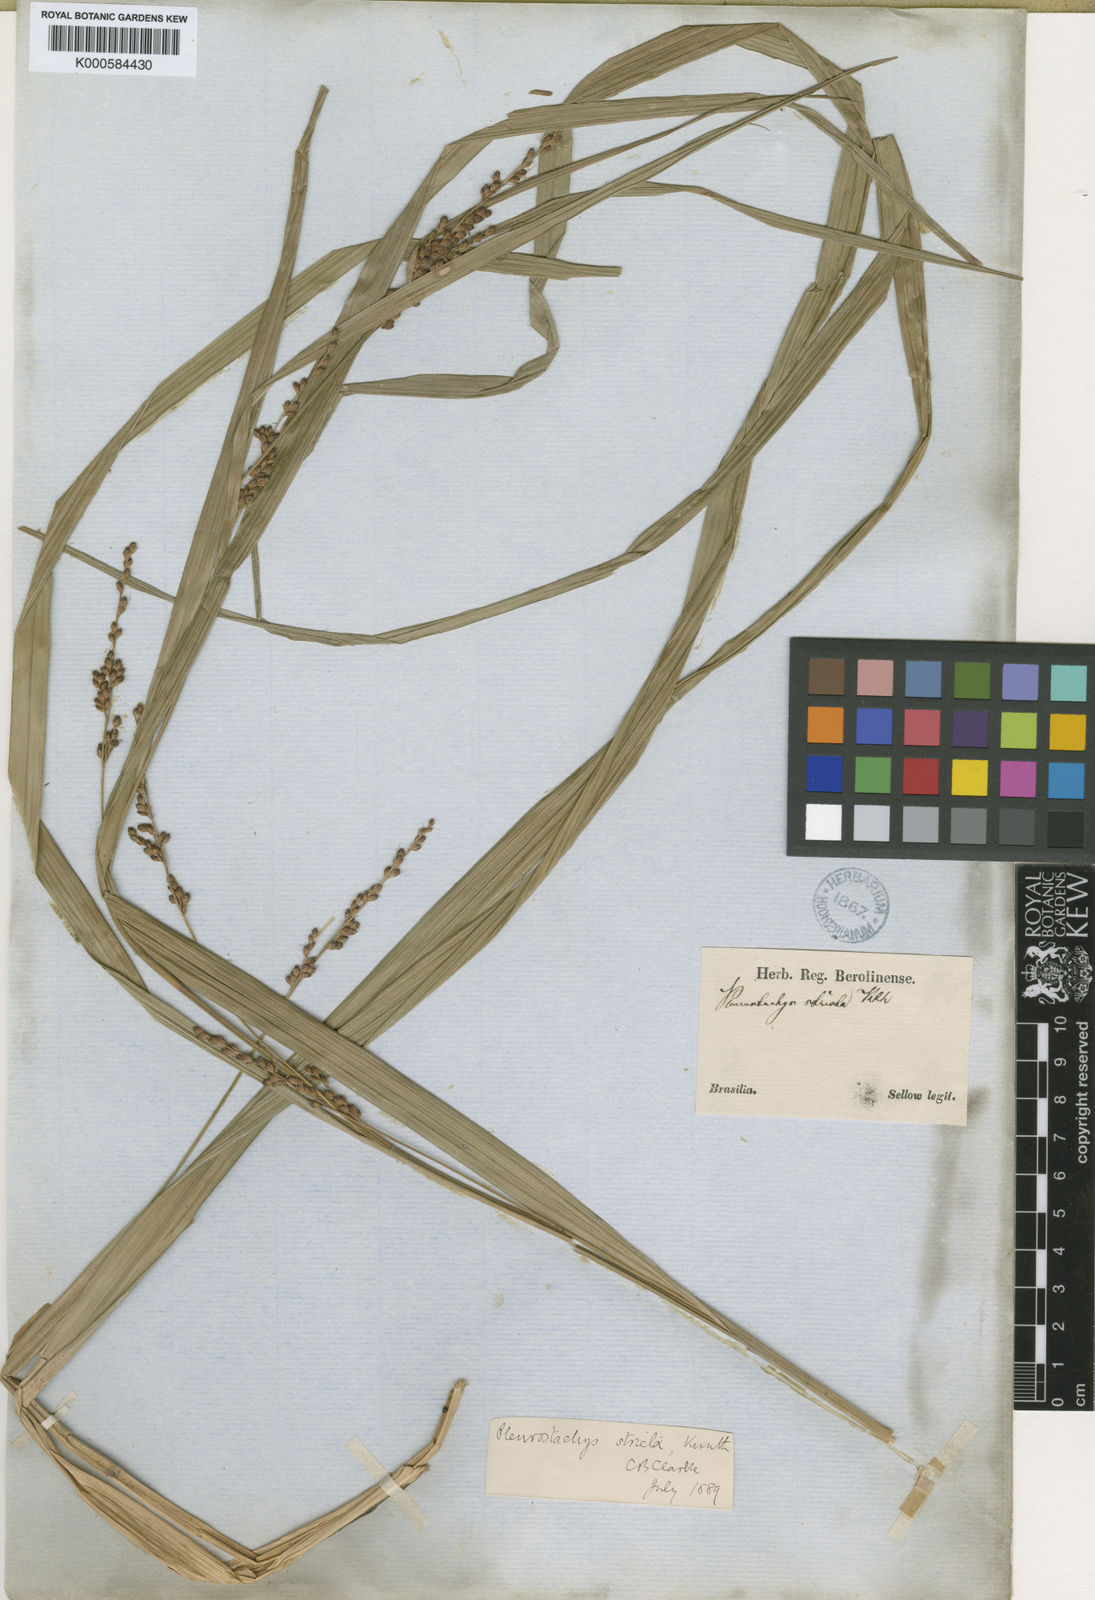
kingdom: Plantae
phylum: Tracheophyta
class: Liliopsida
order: Poales
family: Cyperaceae
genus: Rhynchospora
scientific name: Rhynchospora Pleurostachys muelleri
